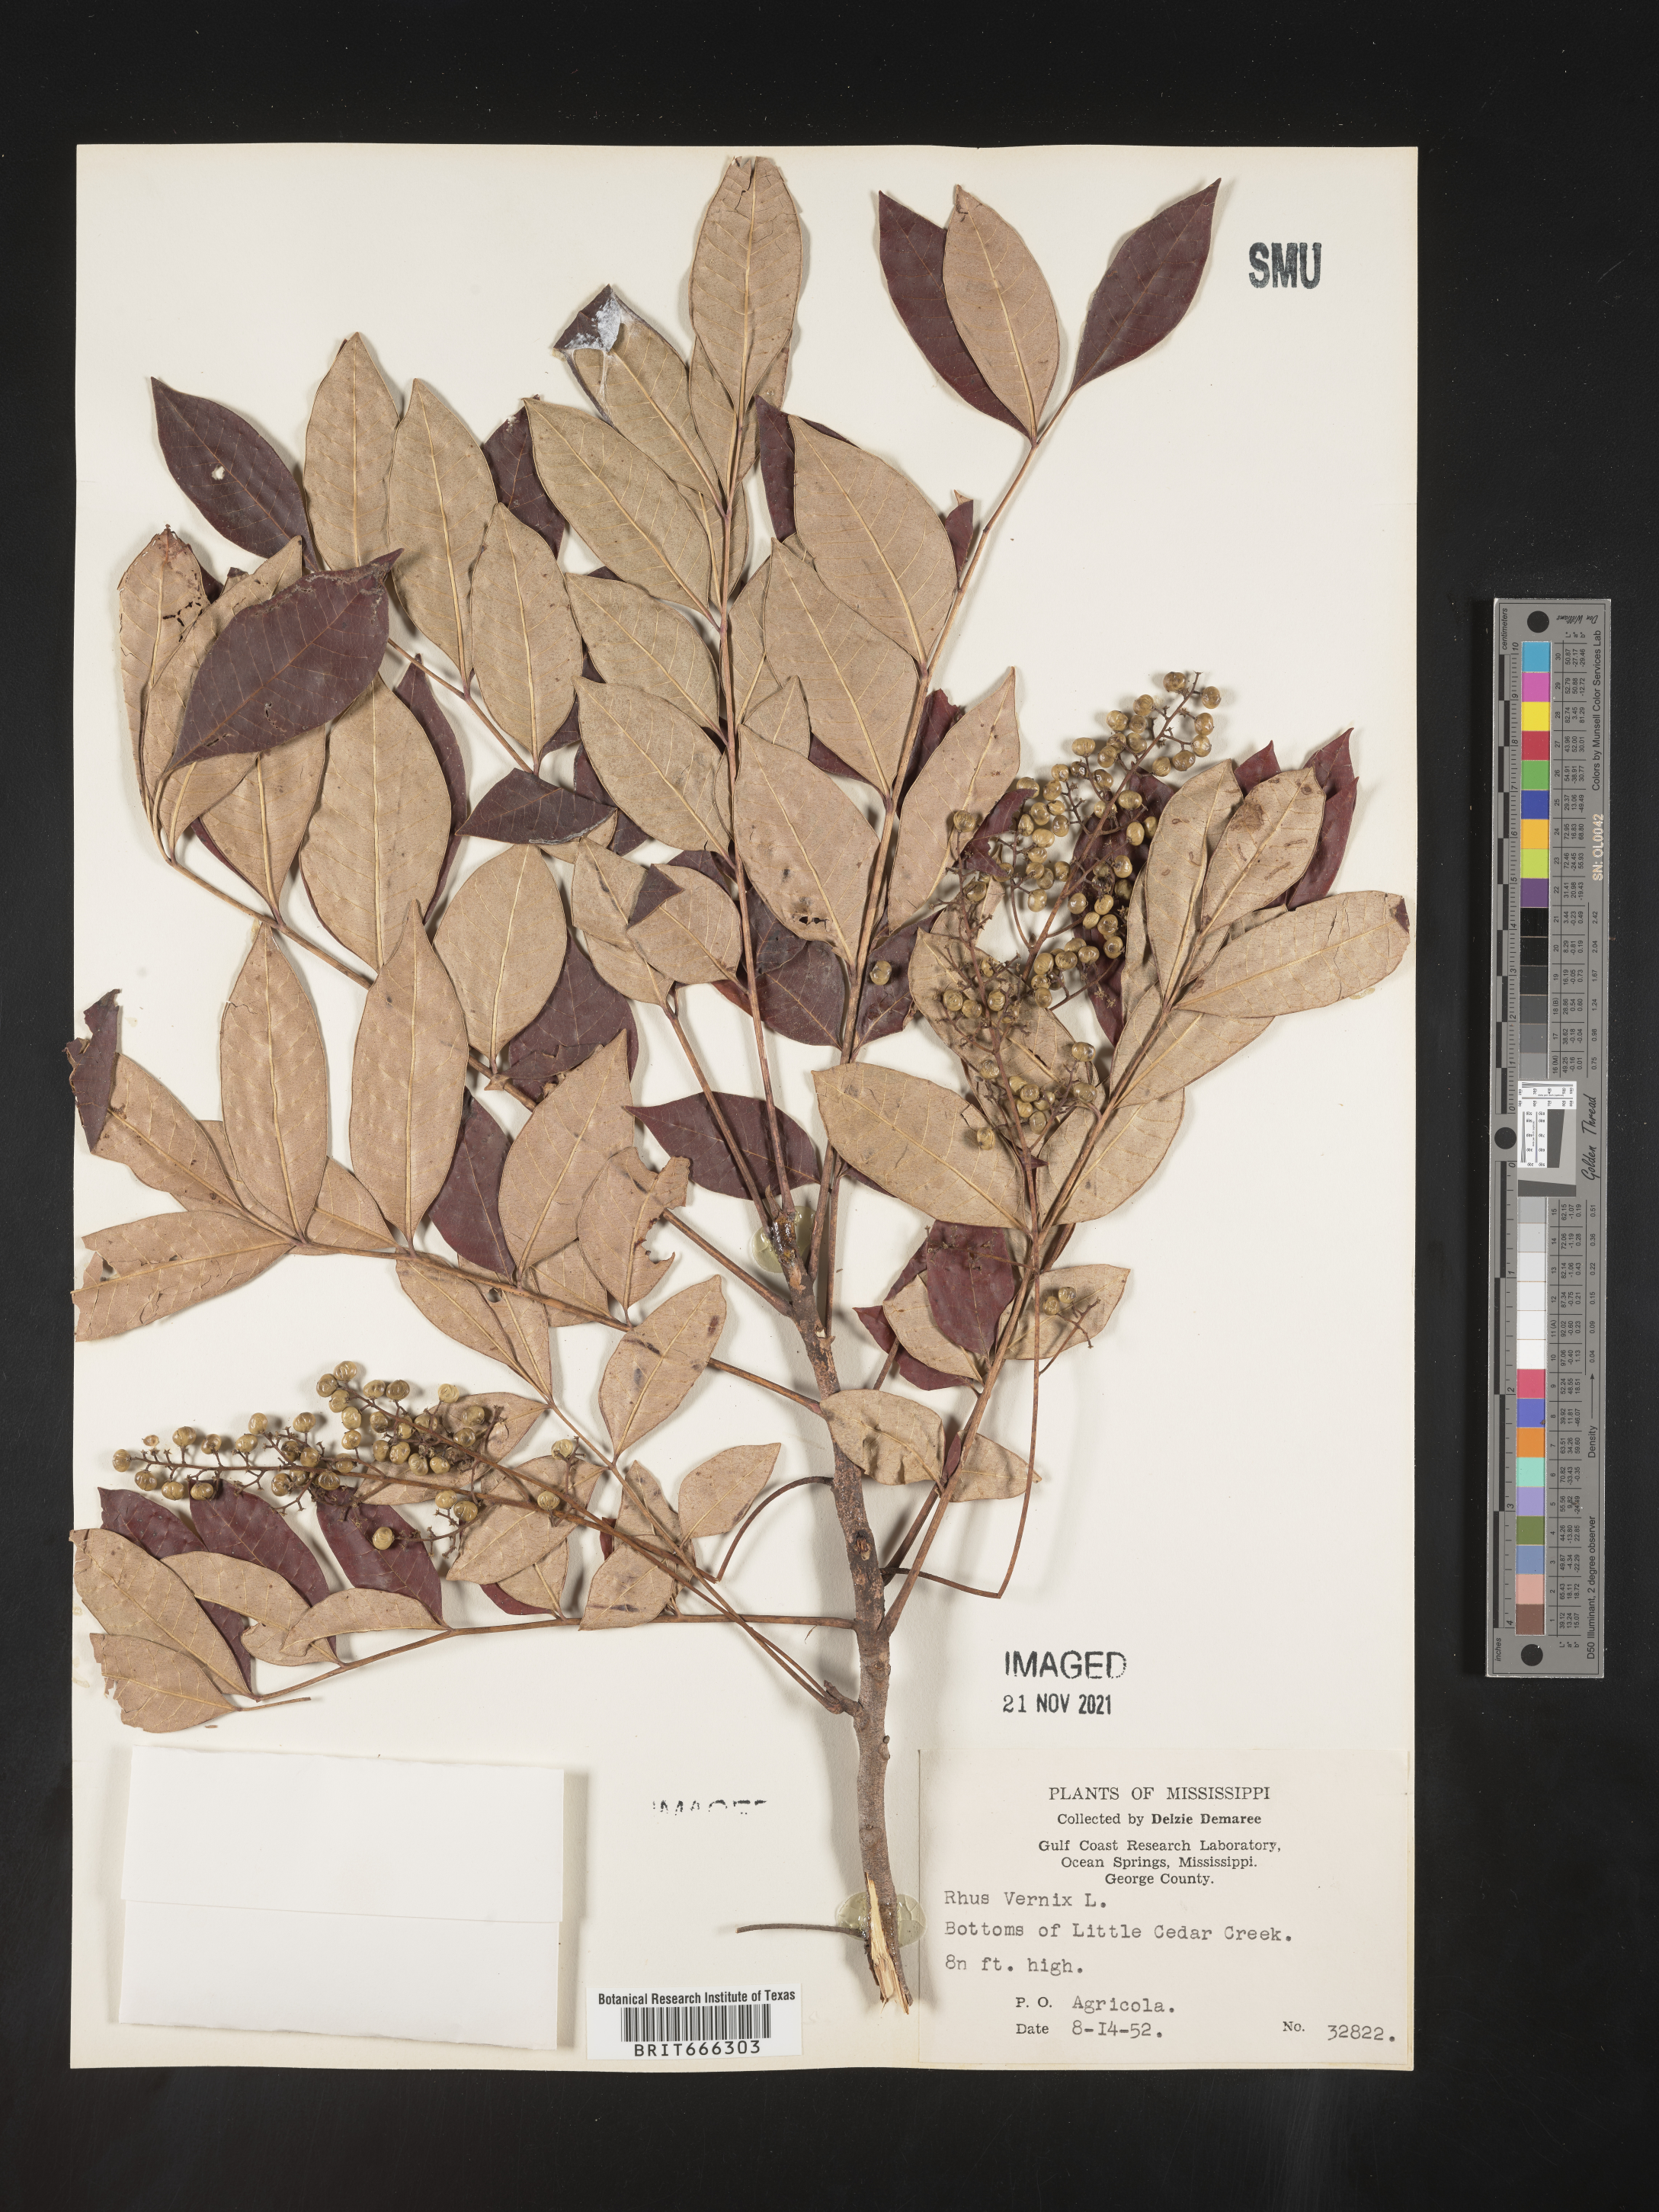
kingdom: Plantae
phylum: Tracheophyta
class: Magnoliopsida
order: Sapindales
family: Anacardiaceae
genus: Toxicodendron
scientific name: Toxicodendron vernix
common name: Poison sumac
